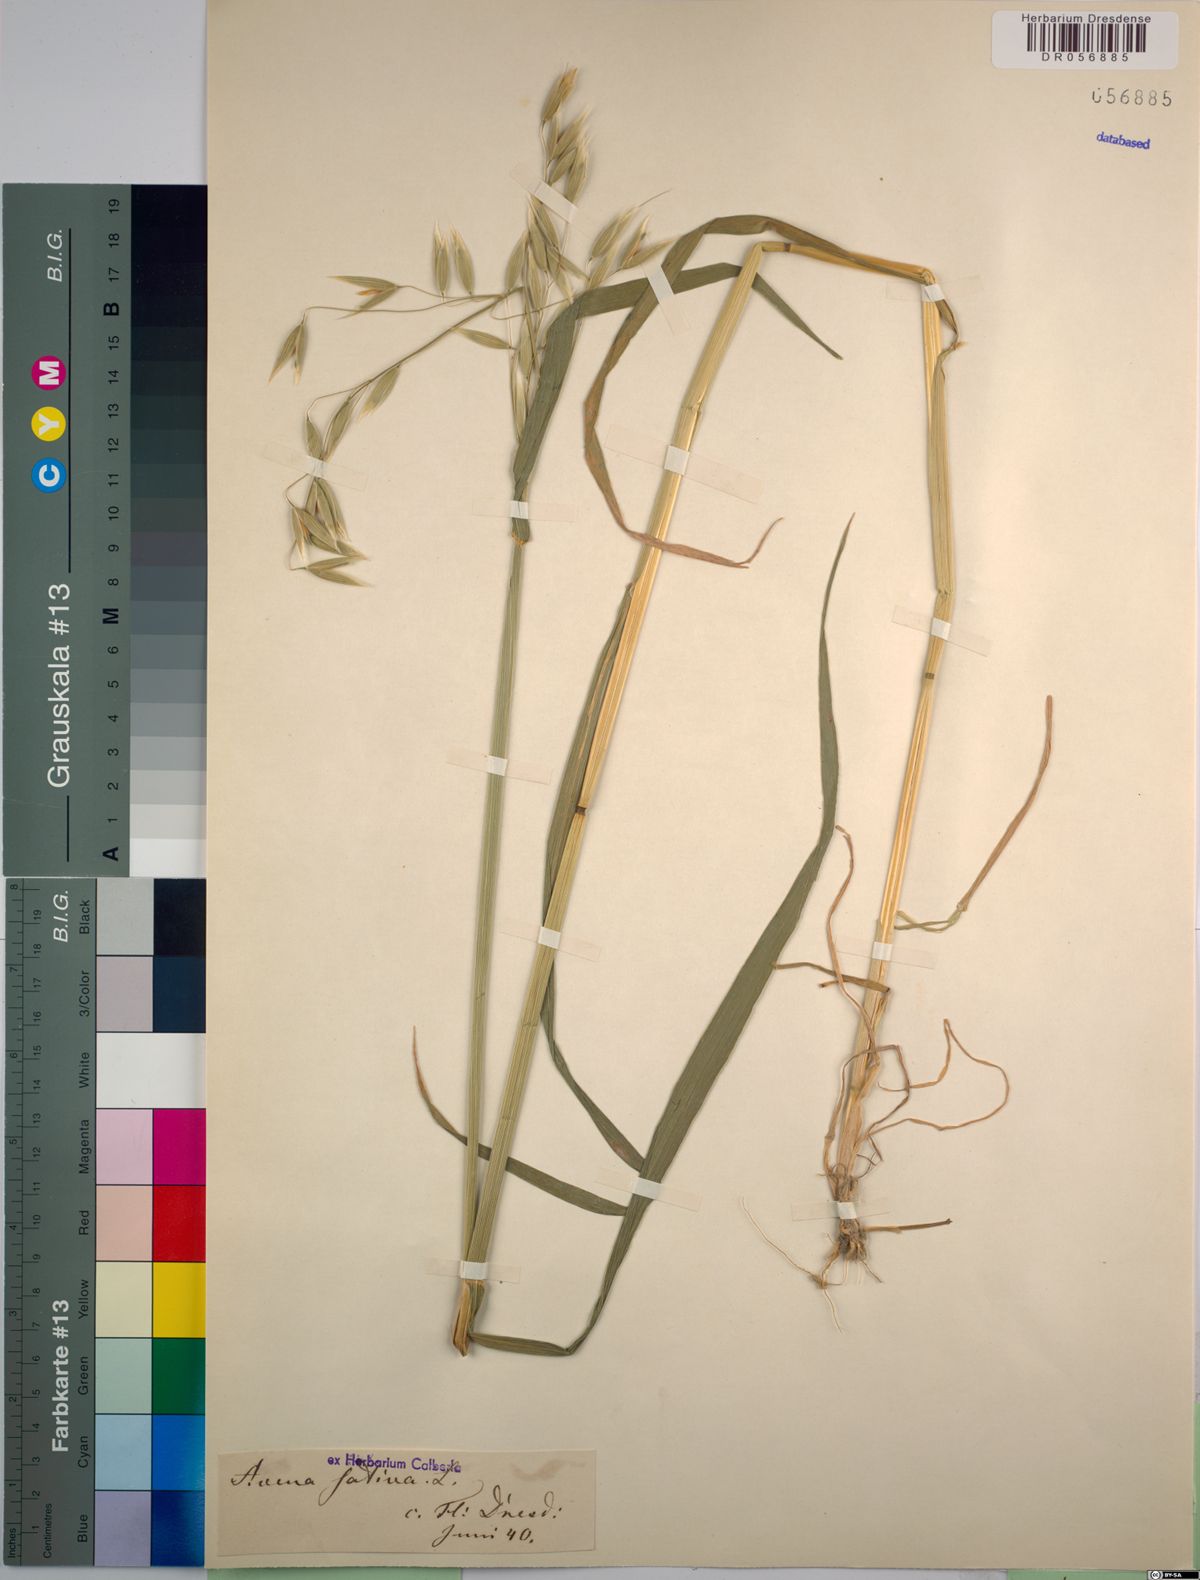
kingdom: Plantae
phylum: Tracheophyta
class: Liliopsida
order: Poales
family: Poaceae
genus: Avena
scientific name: Avena sativa
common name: Oat
